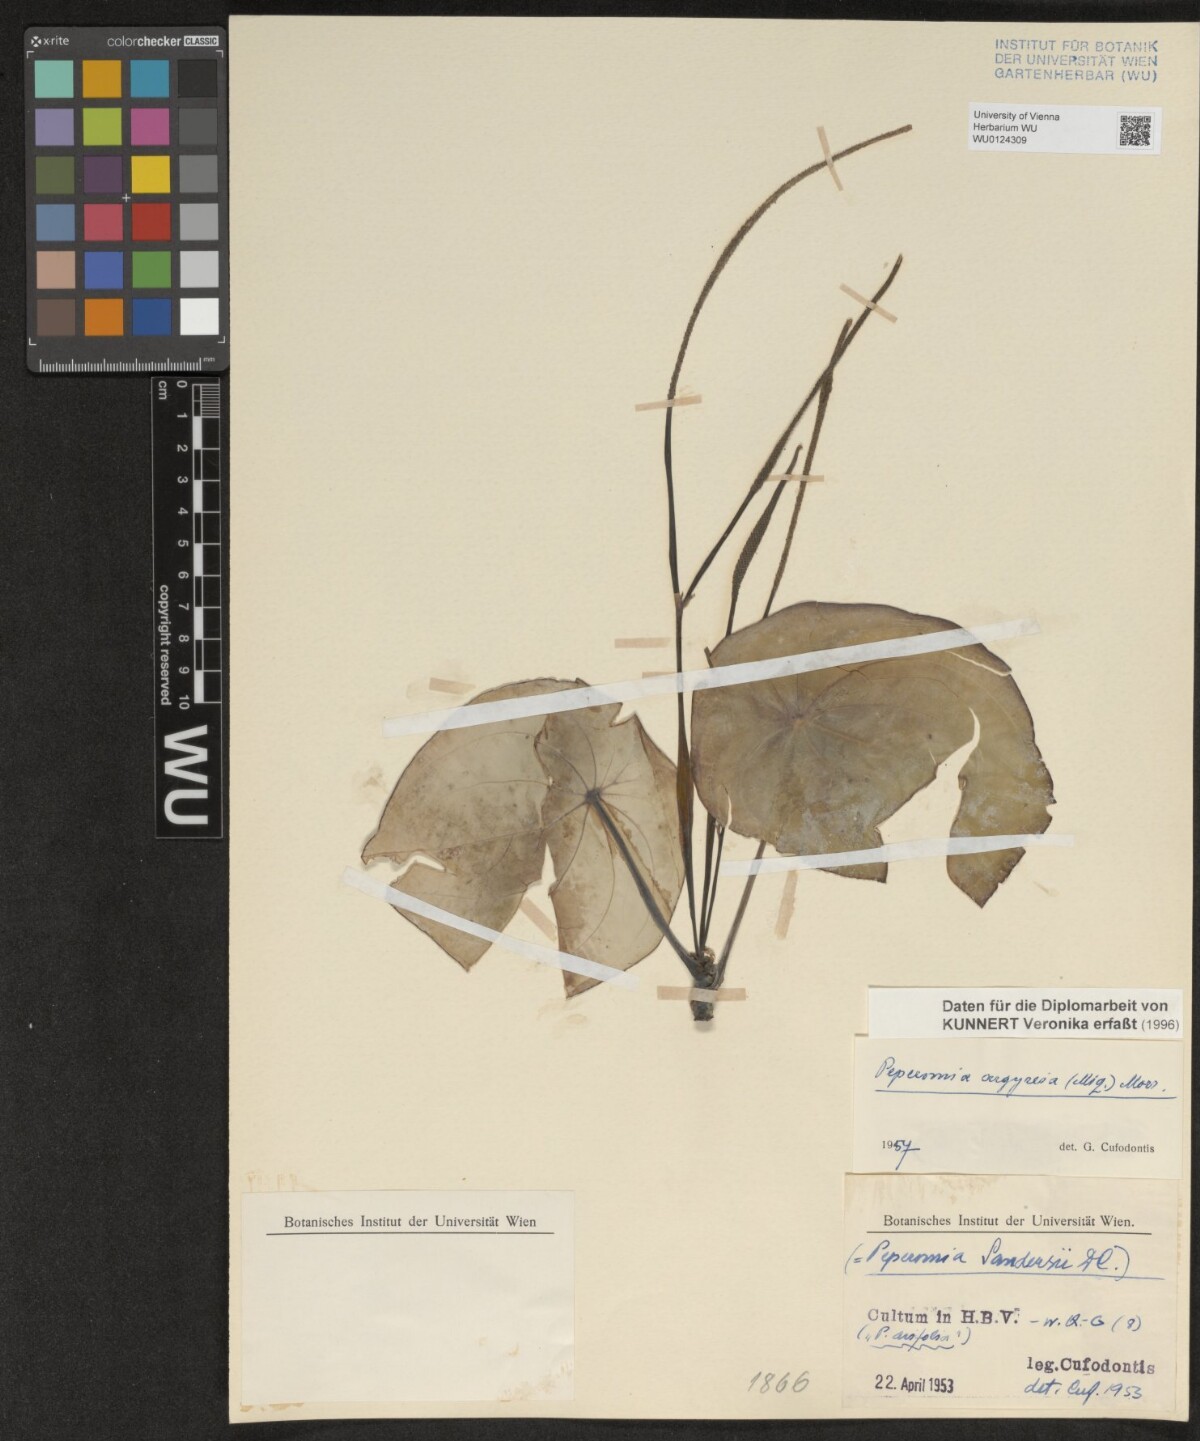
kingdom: Plantae
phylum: Tracheophyta
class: Magnoliopsida
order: Piperales
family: Piperaceae
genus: Peperomia
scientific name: Peperomia argyreia
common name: Watermelon pepper
